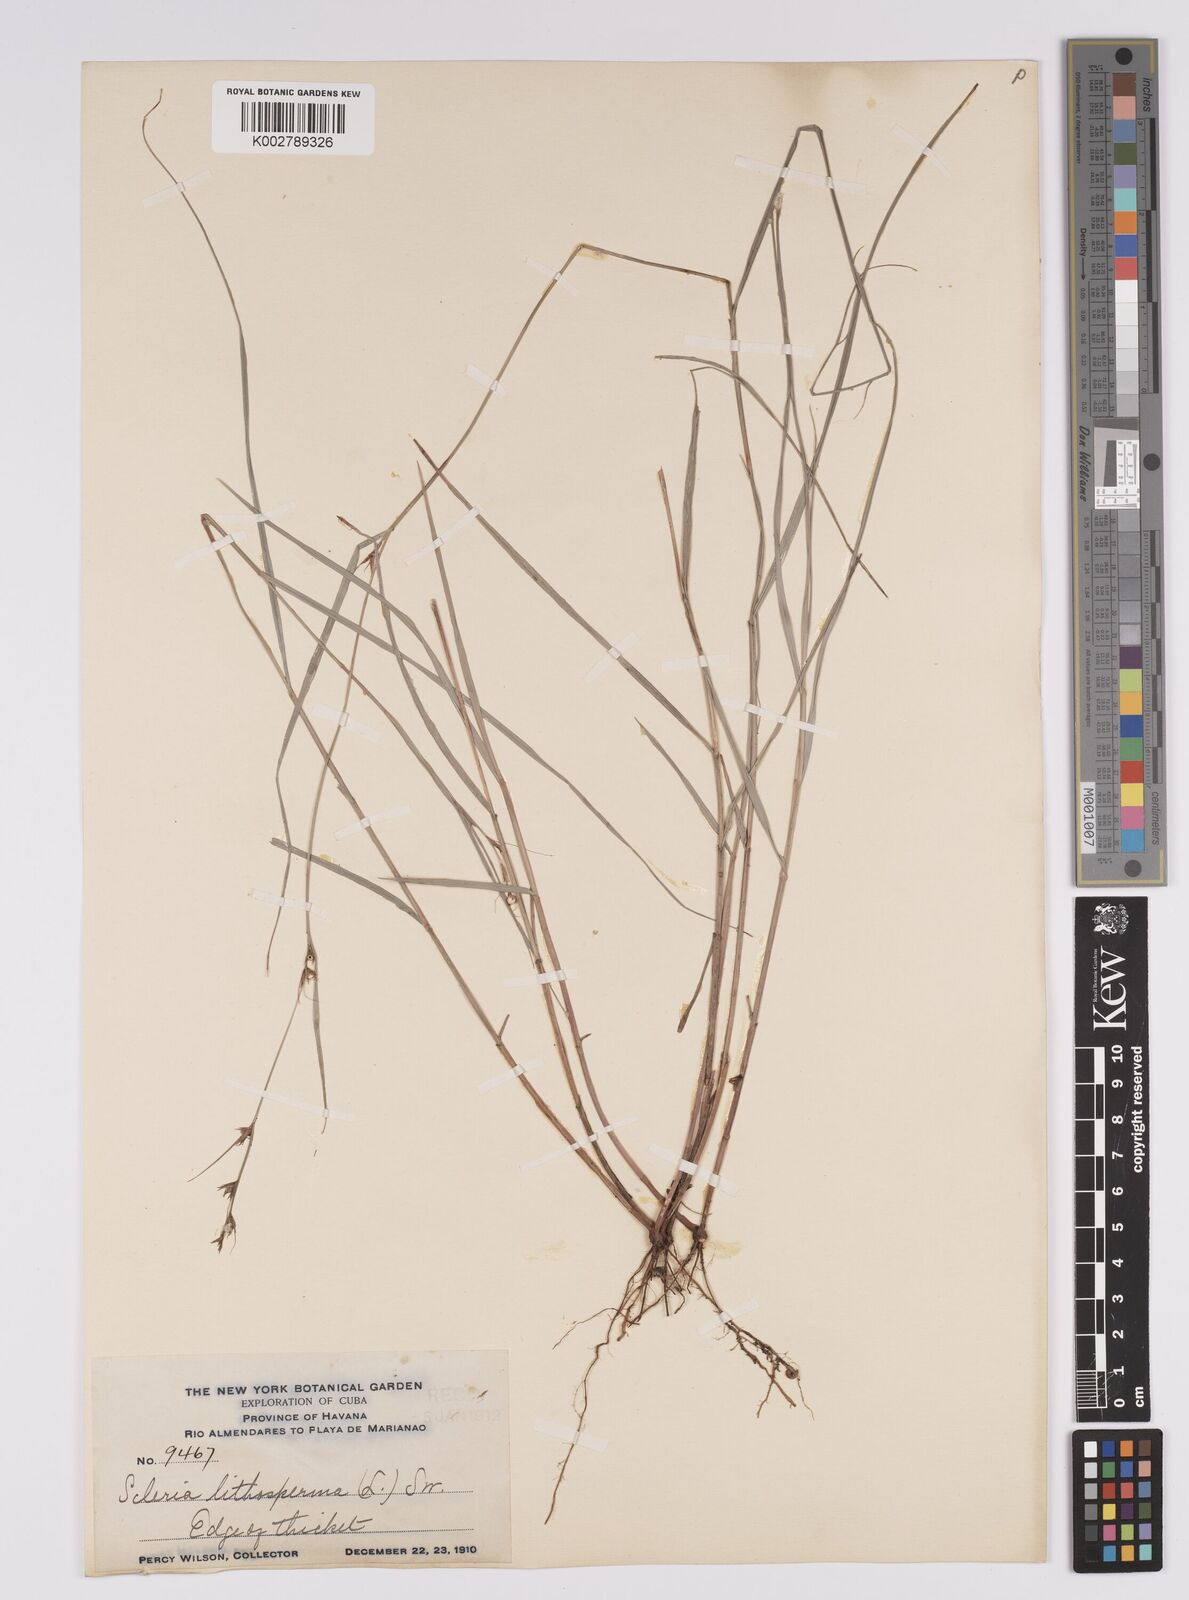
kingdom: Plantae
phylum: Tracheophyta
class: Liliopsida
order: Poales
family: Cyperaceae
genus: Scleria
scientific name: Scleria lithosperma
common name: Florida keys nut-rush
